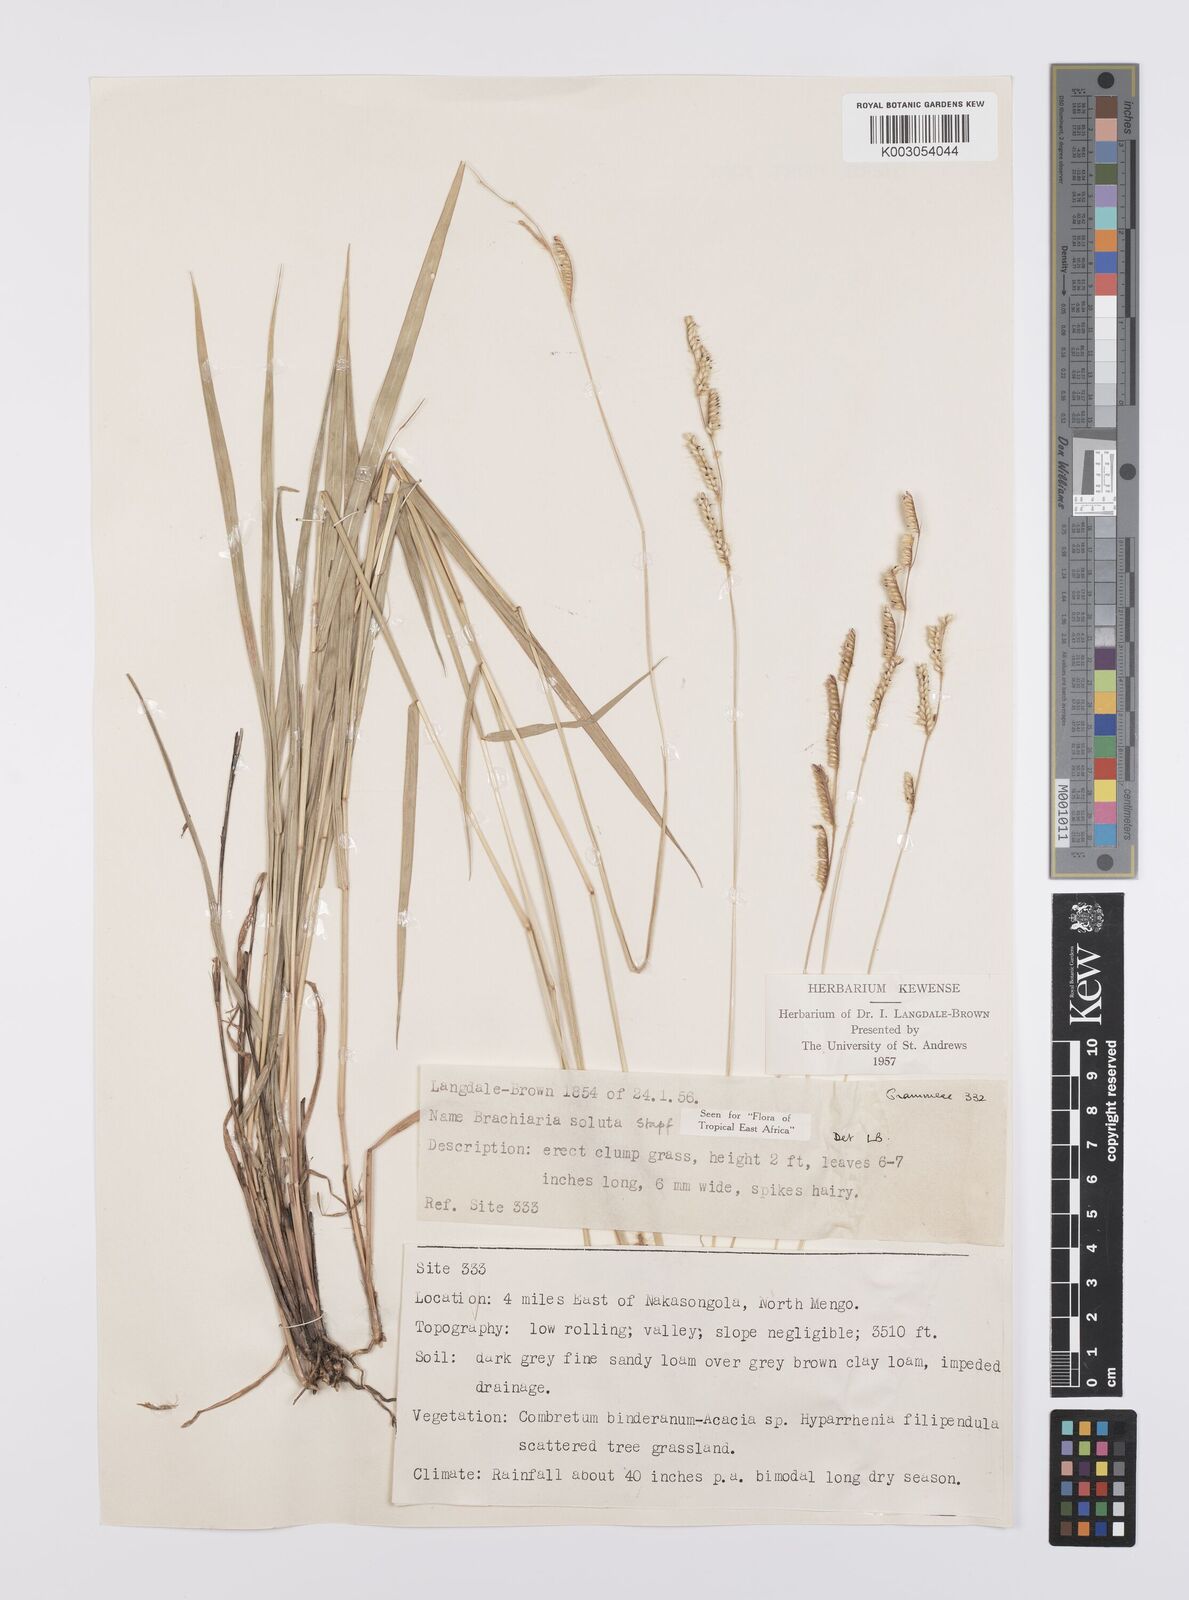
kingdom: Plantae
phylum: Tracheophyta
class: Liliopsida
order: Poales
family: Poaceae
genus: Urochloa
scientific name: Urochloa jubata
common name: Buffalograss
